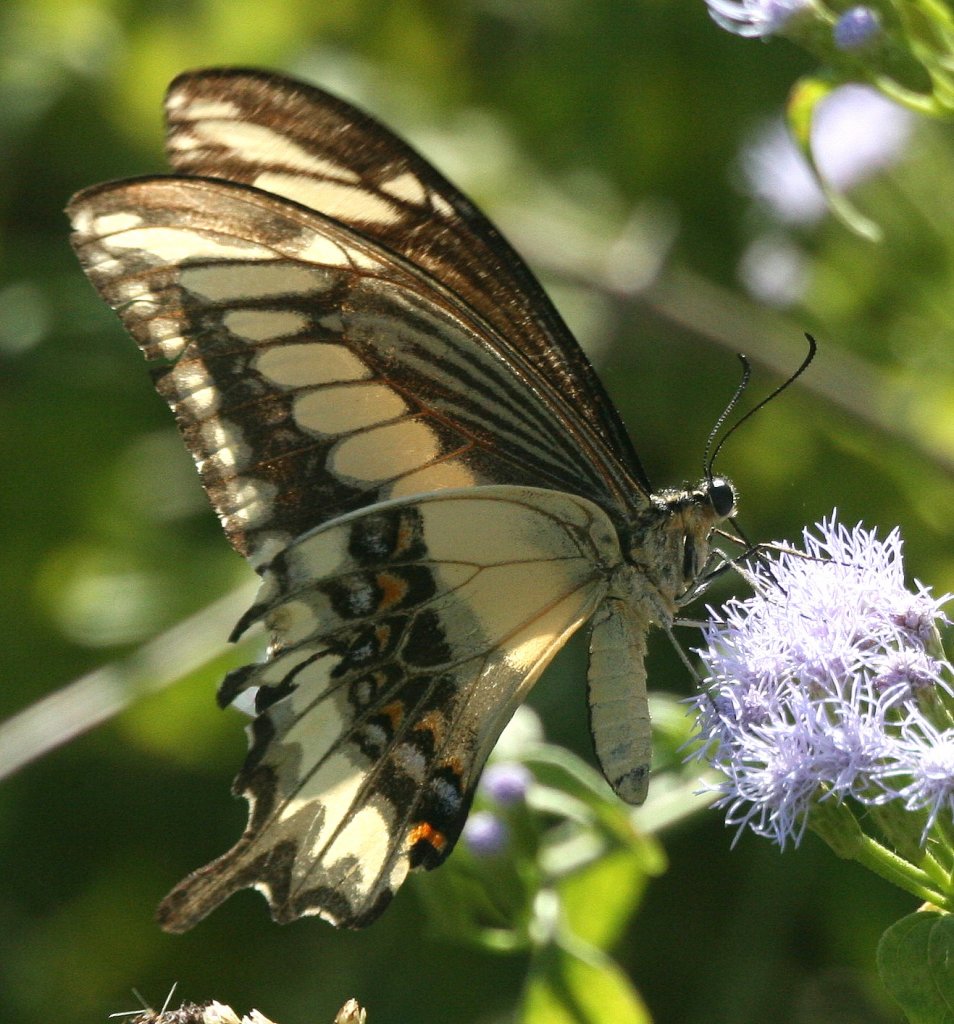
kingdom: Animalia
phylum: Arthropoda
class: Insecta
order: Lepidoptera
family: Papilionidae
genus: Papilio
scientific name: Papilio ornythion
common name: Ornythion Swallowtail
